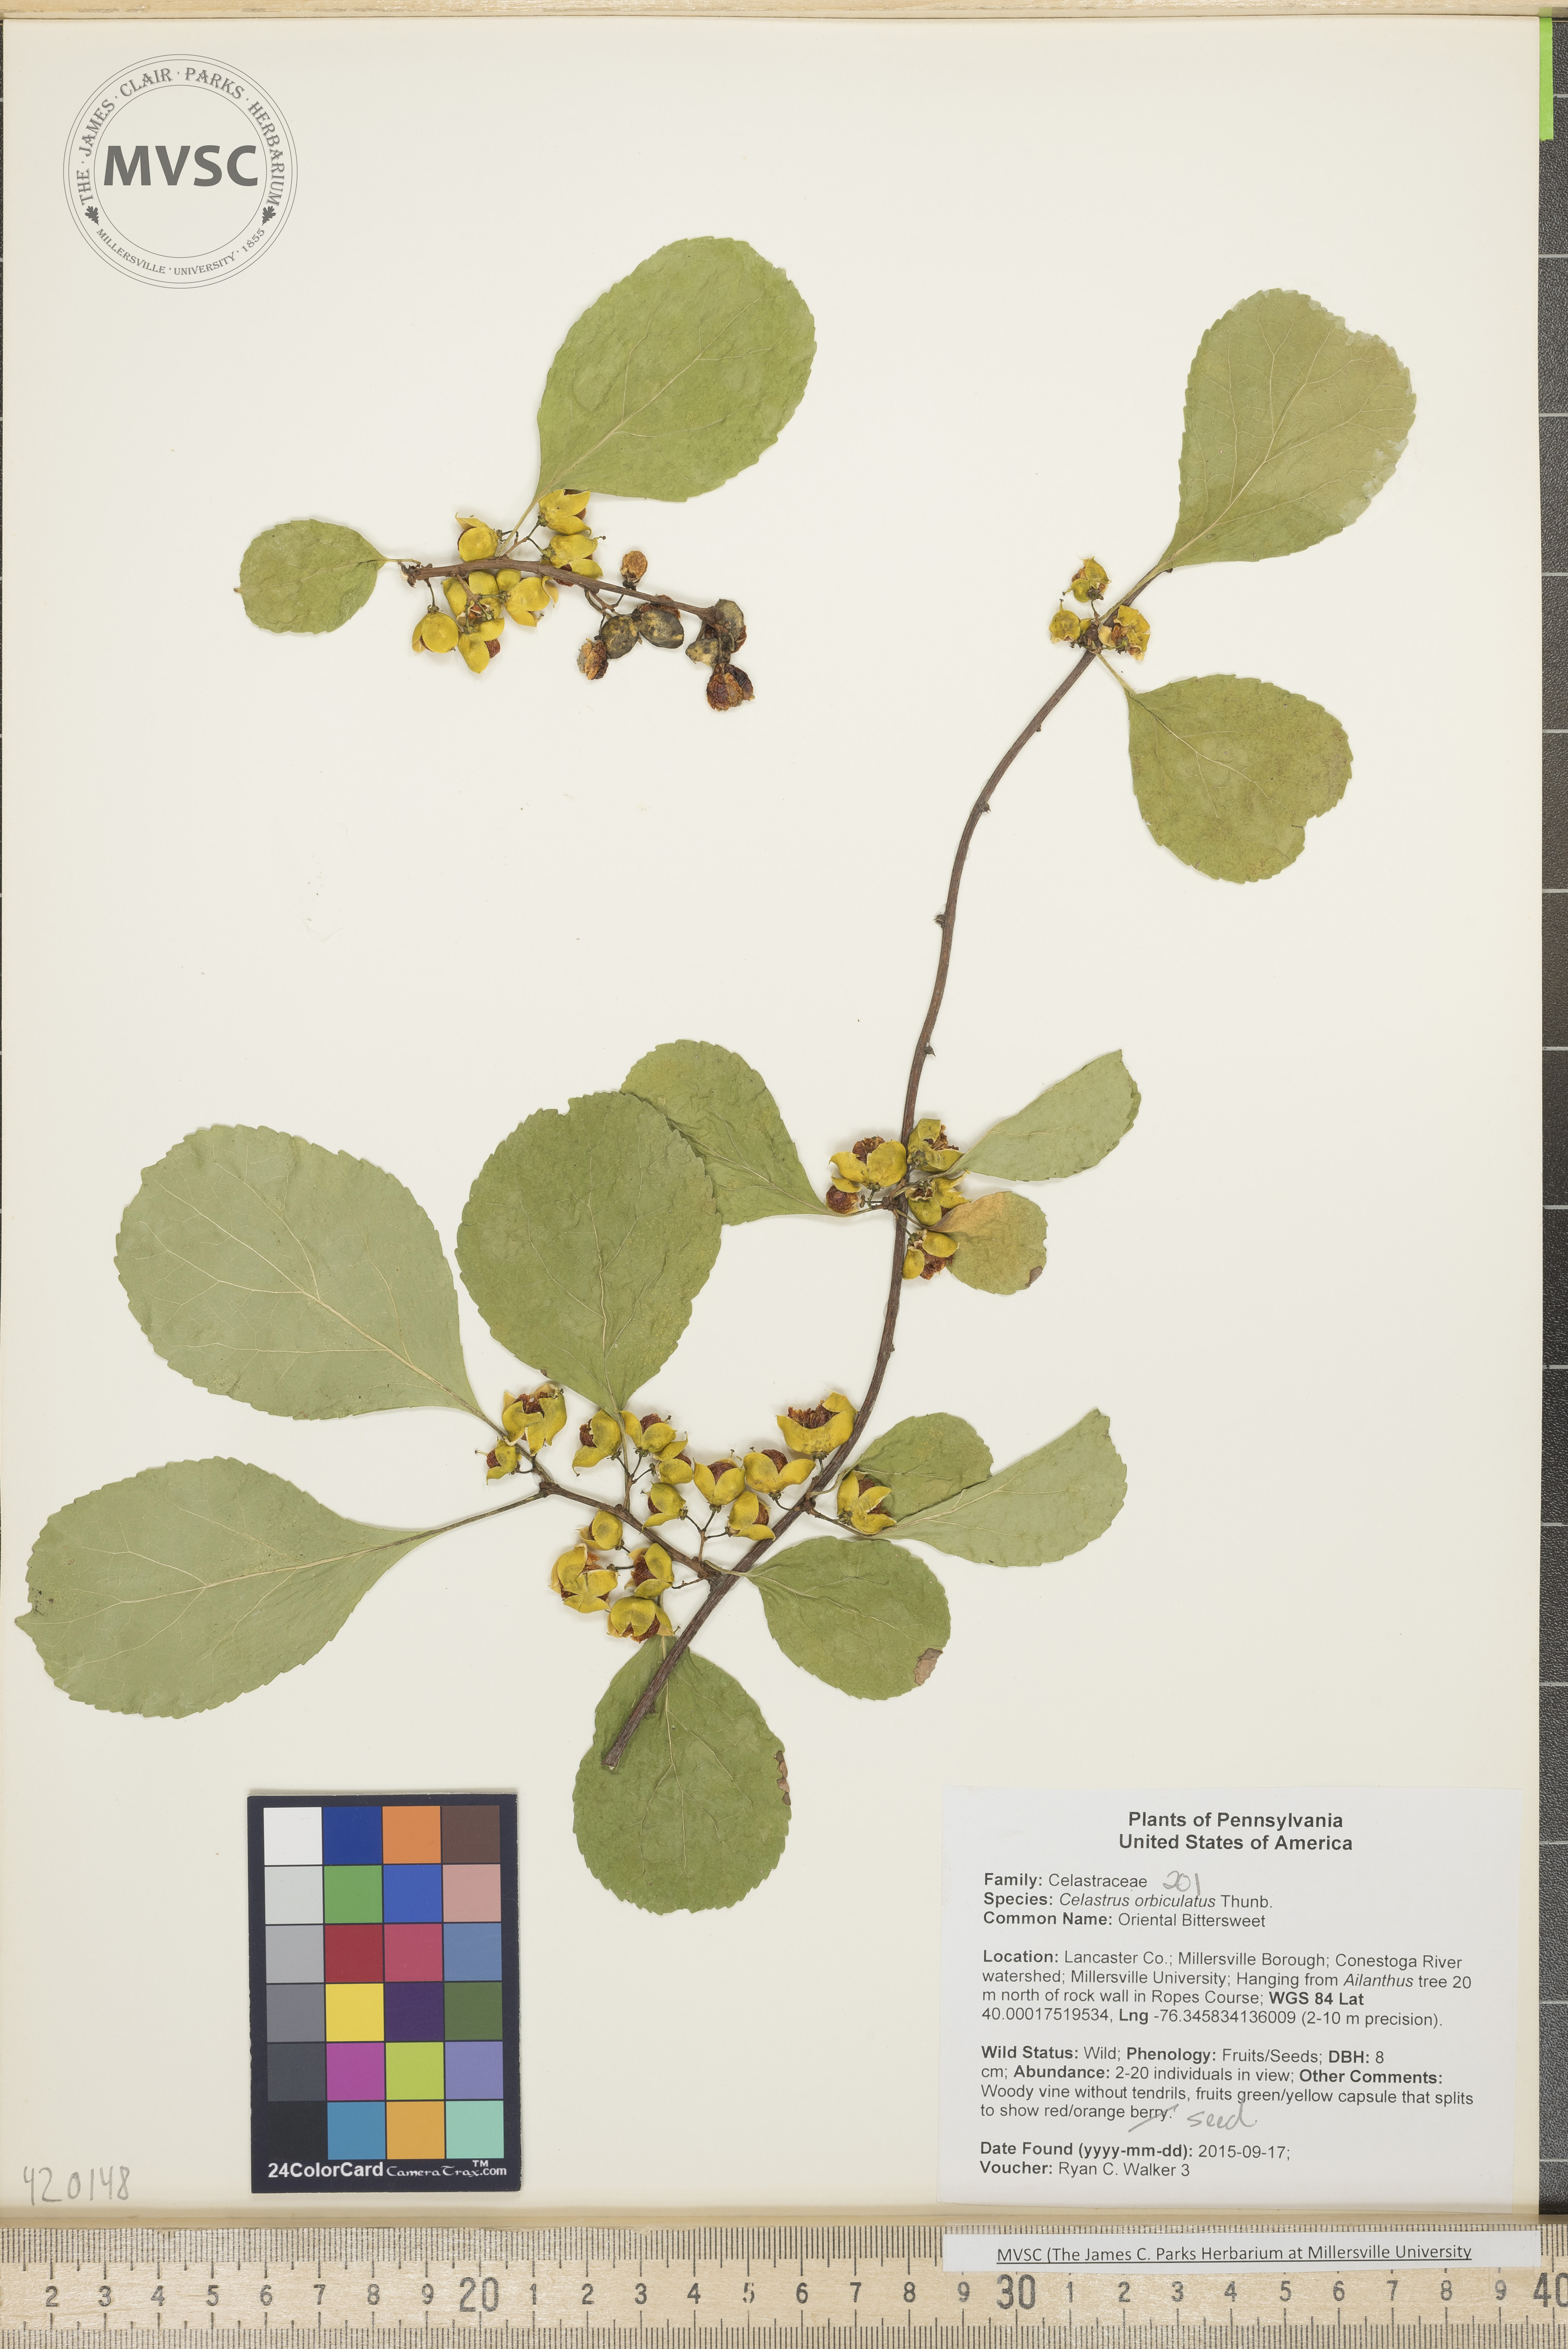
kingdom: Plantae
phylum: Tracheophyta
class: Magnoliopsida
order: Celastrales
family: Celastraceae
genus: Celastrus
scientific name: Celastrus orbiculatus
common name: Oriental Bittersweet
